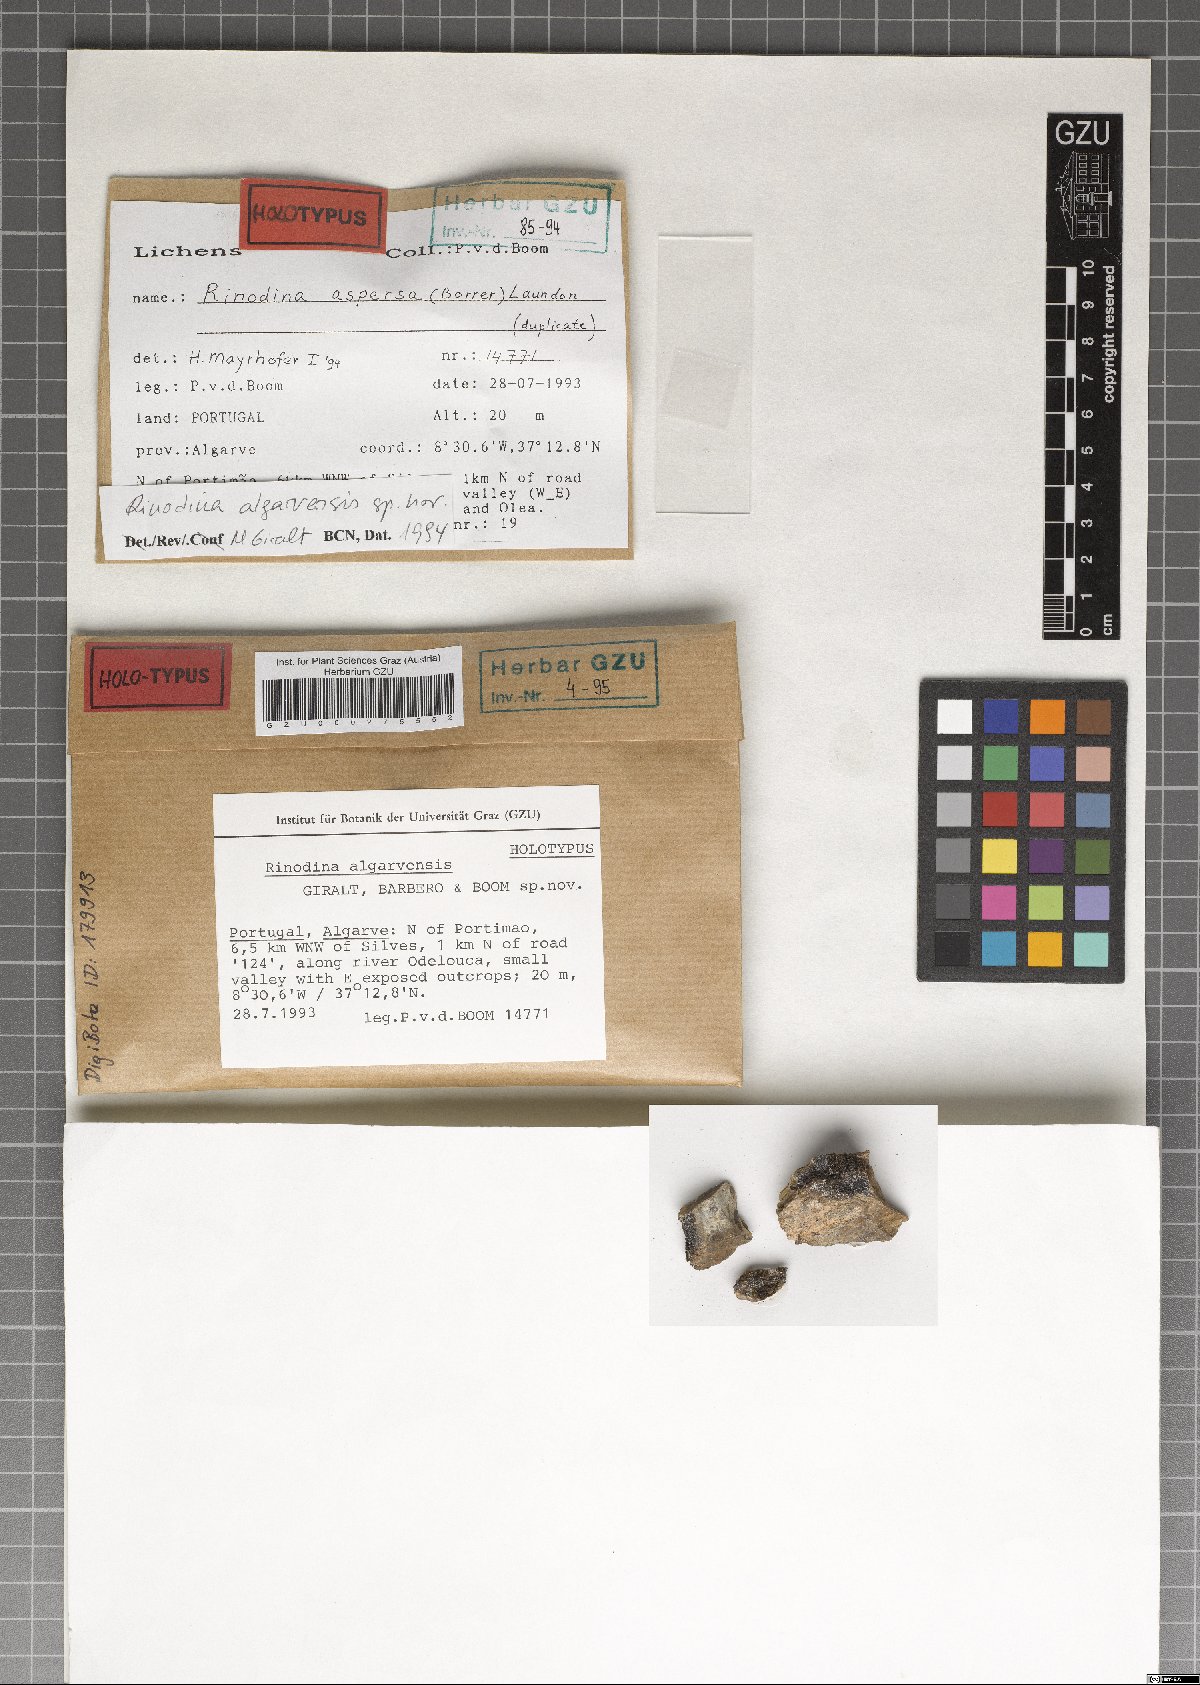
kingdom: Fungi
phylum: Ascomycota
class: Lecanoromycetes
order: Caliciales
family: Physciaceae
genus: Rinodina
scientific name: Rinodina
